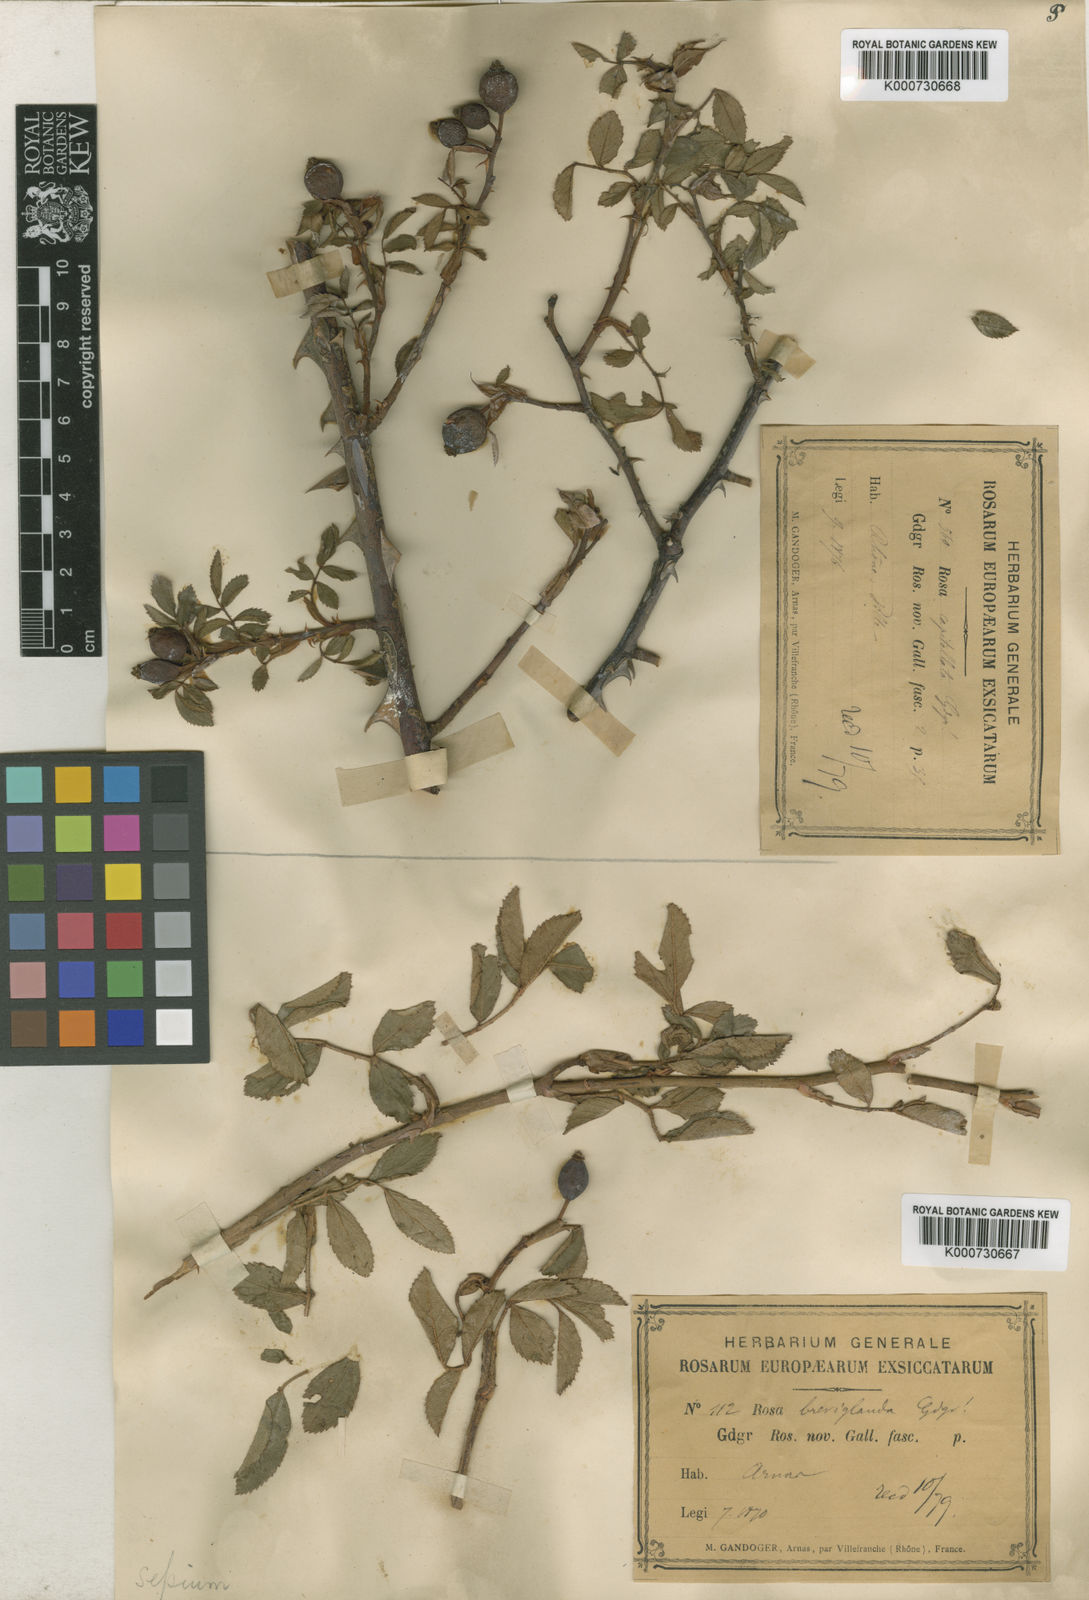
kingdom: Plantae
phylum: Tracheophyta
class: Magnoliopsida
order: Rosales
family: Rosaceae
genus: Rosa
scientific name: Rosa agrestis
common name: Fieldbriar
